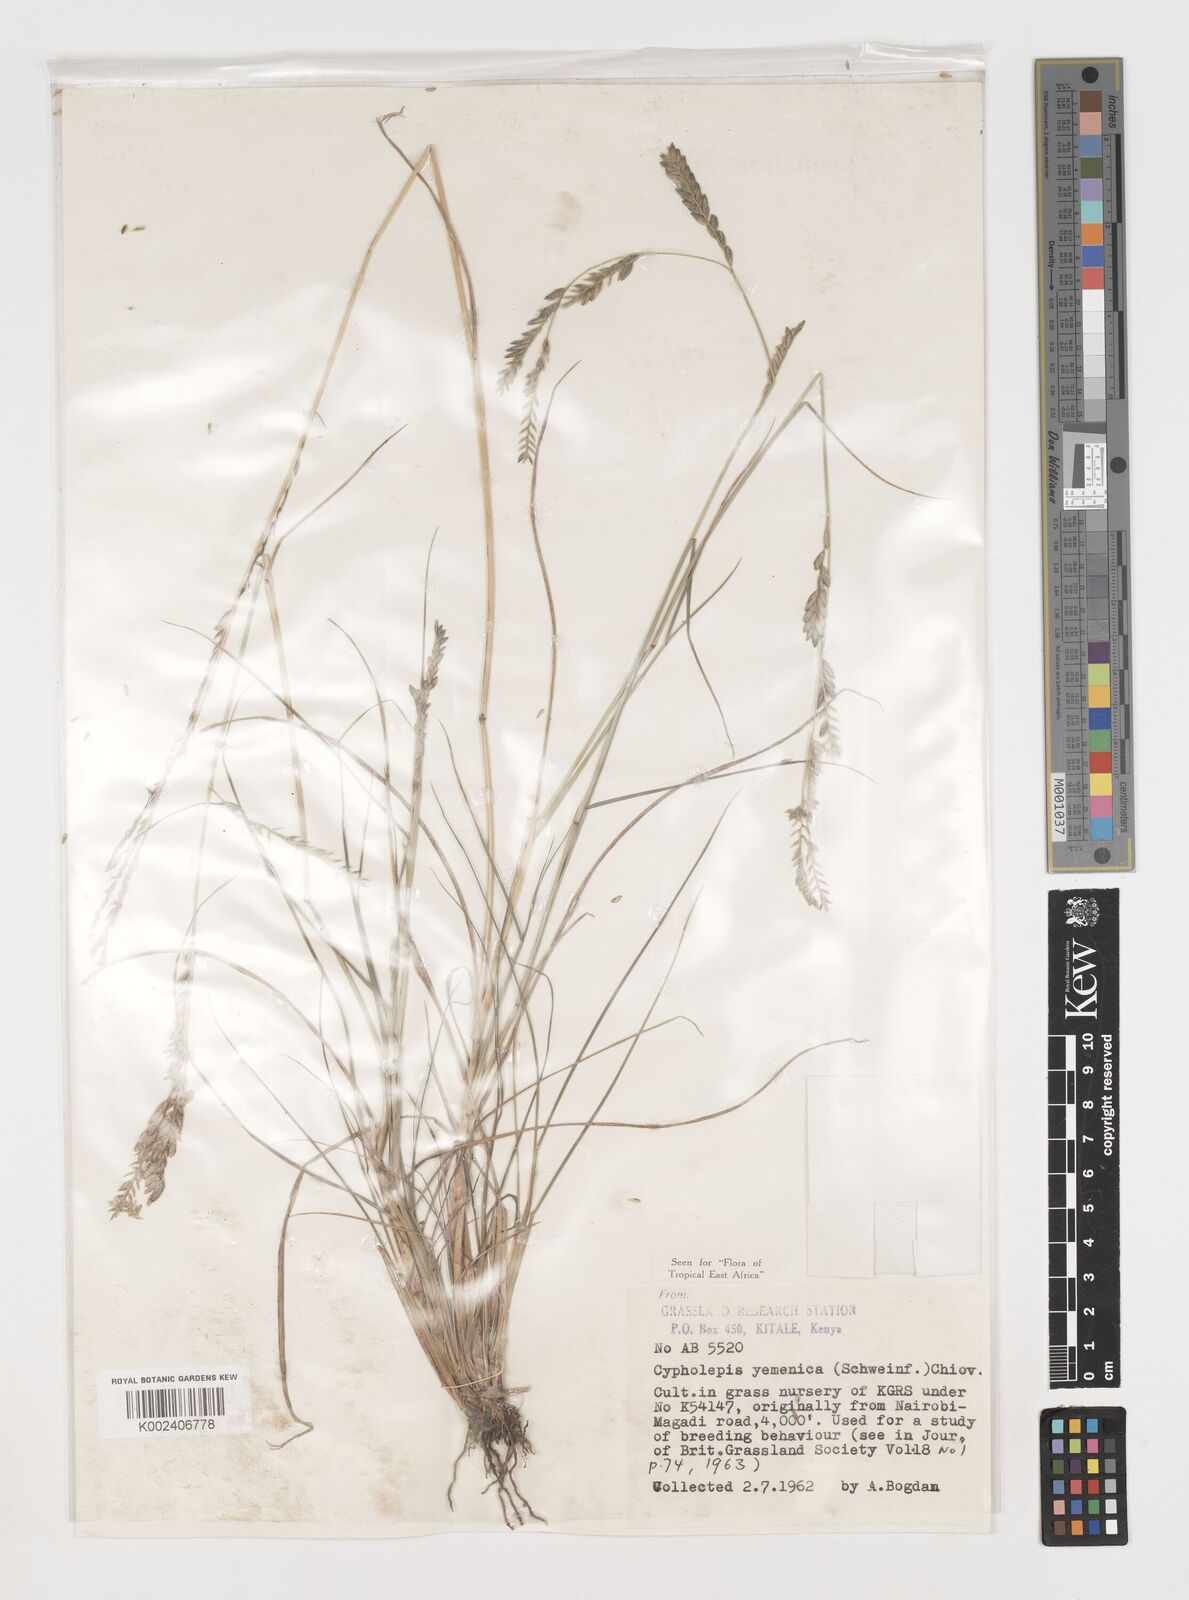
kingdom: Plantae
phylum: Tracheophyta
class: Liliopsida
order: Poales
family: Poaceae
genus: Disakisperma
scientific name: Disakisperma yemenicum
